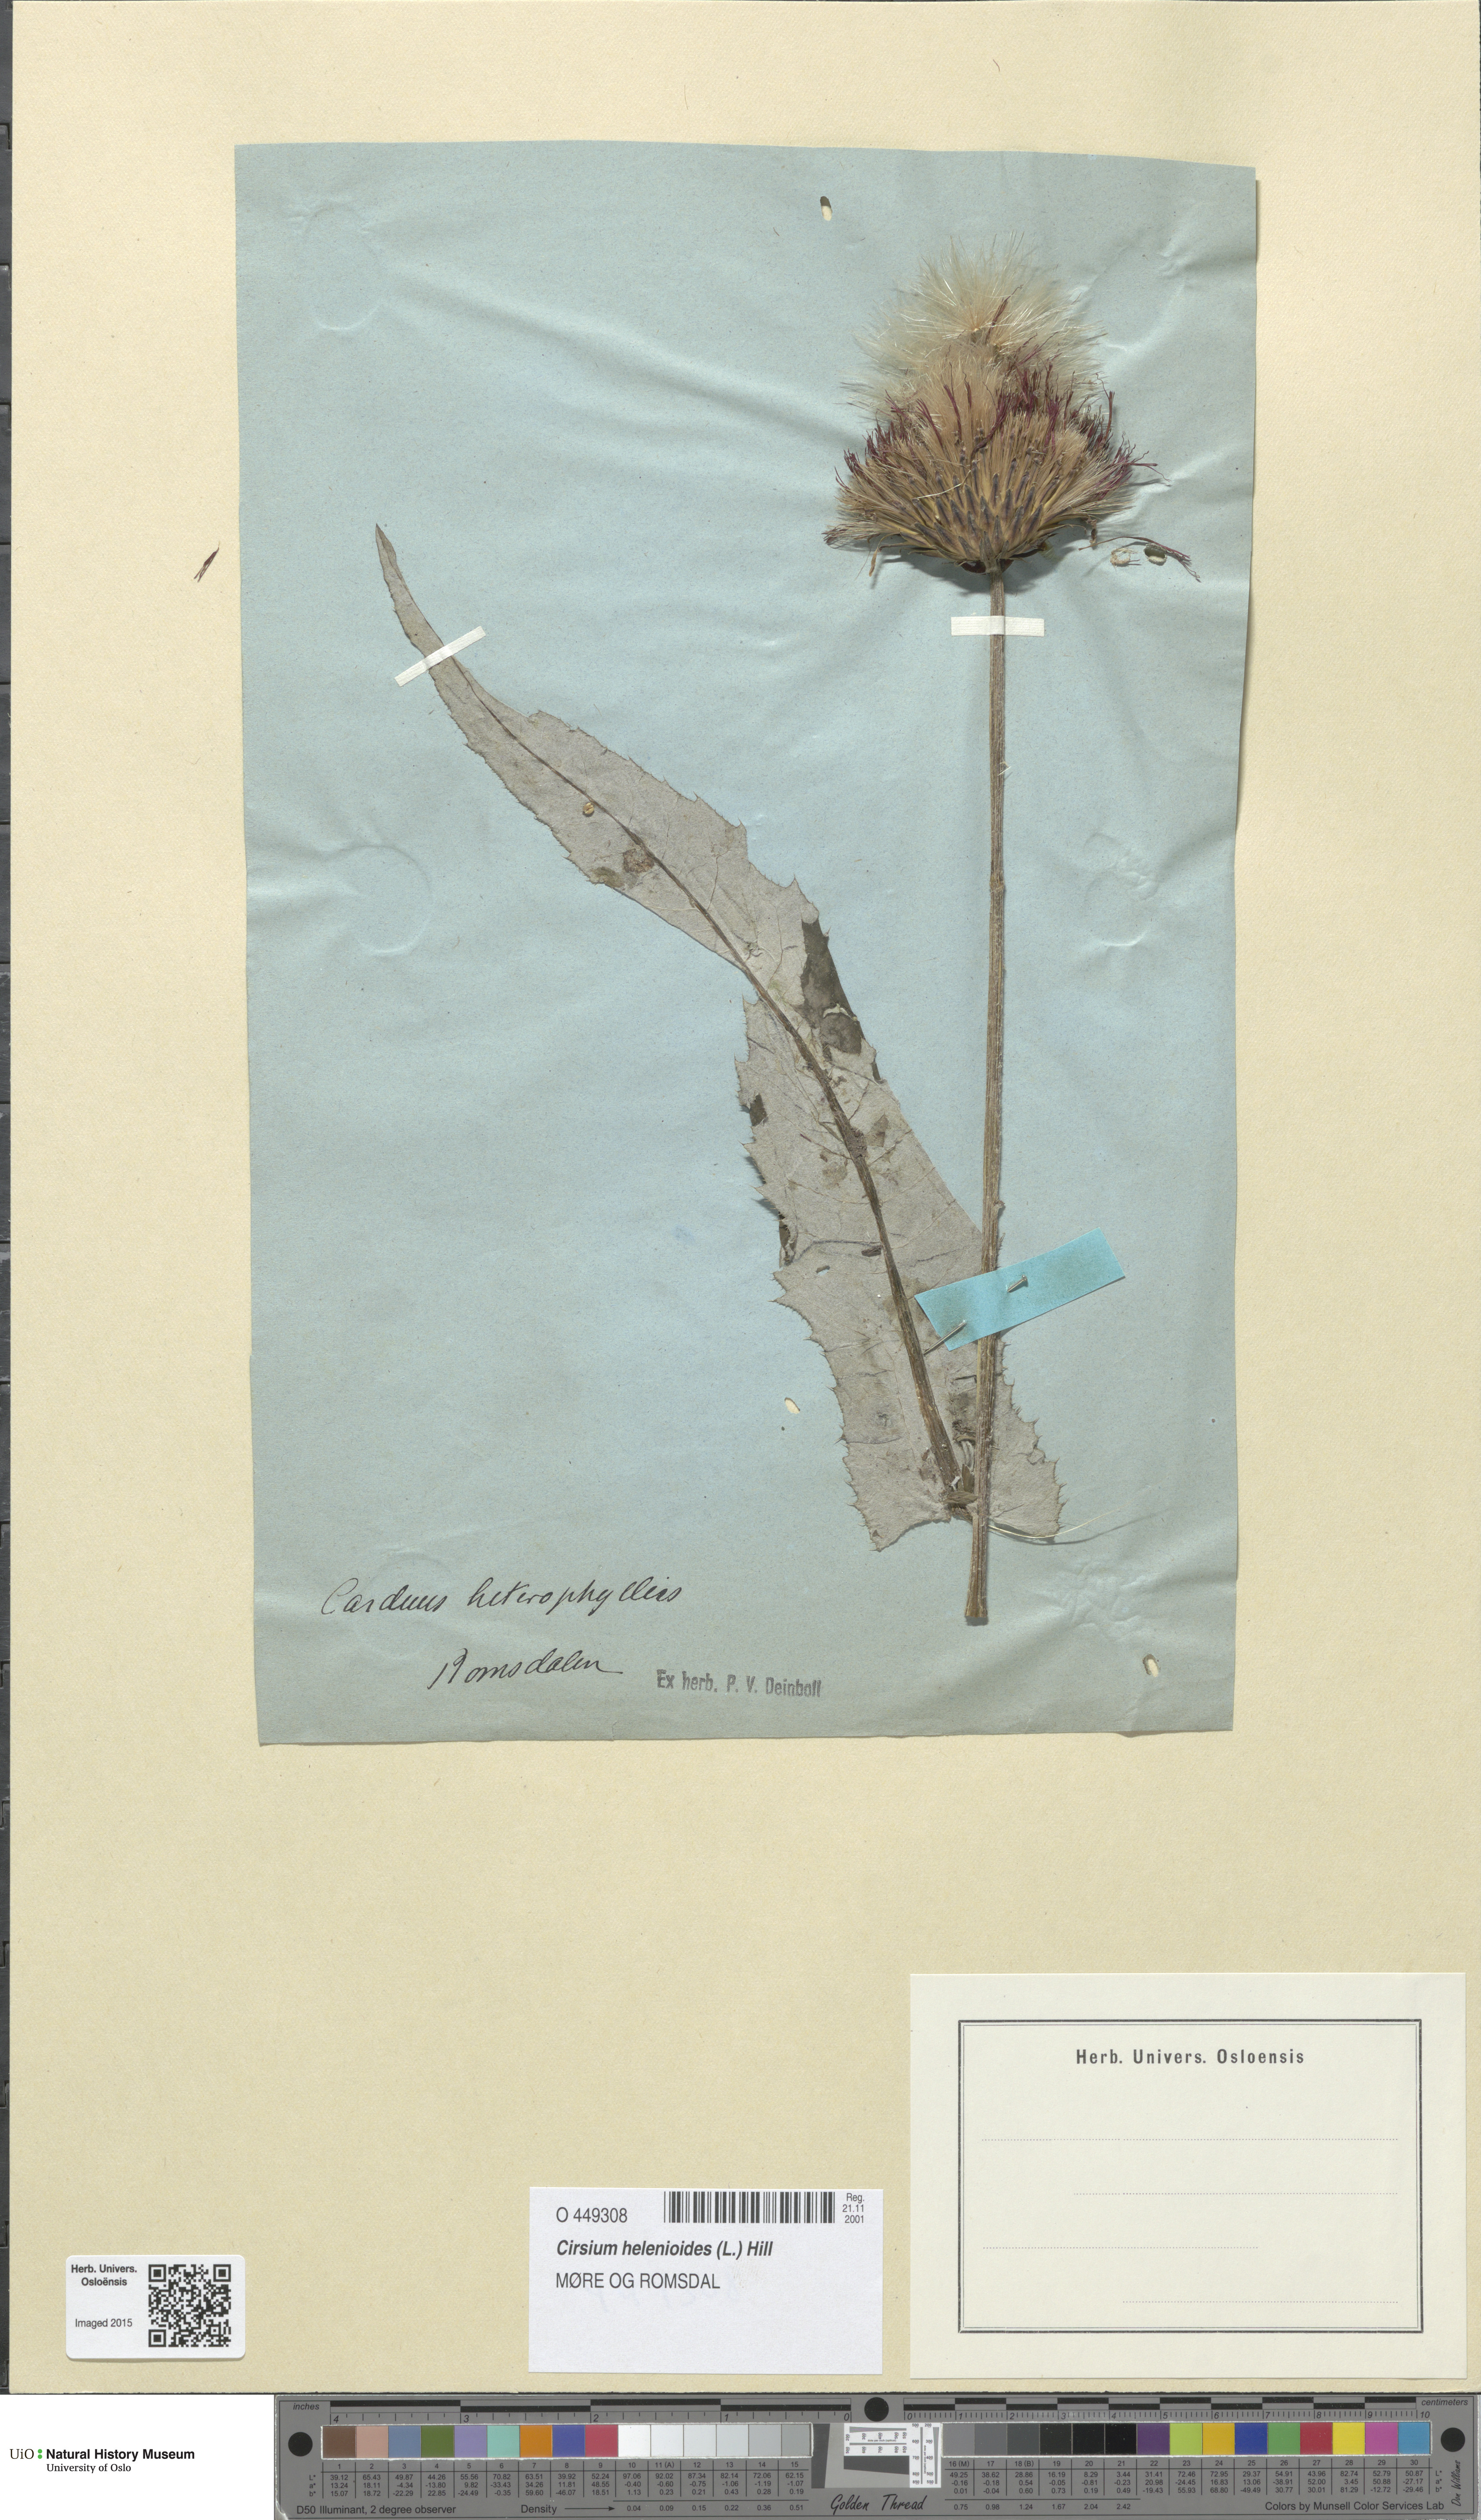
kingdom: Plantae
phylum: Tracheophyta
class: Magnoliopsida
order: Asterales
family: Asteraceae
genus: Cirsium
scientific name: Cirsium heterophyllum
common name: Melancholy thistle
